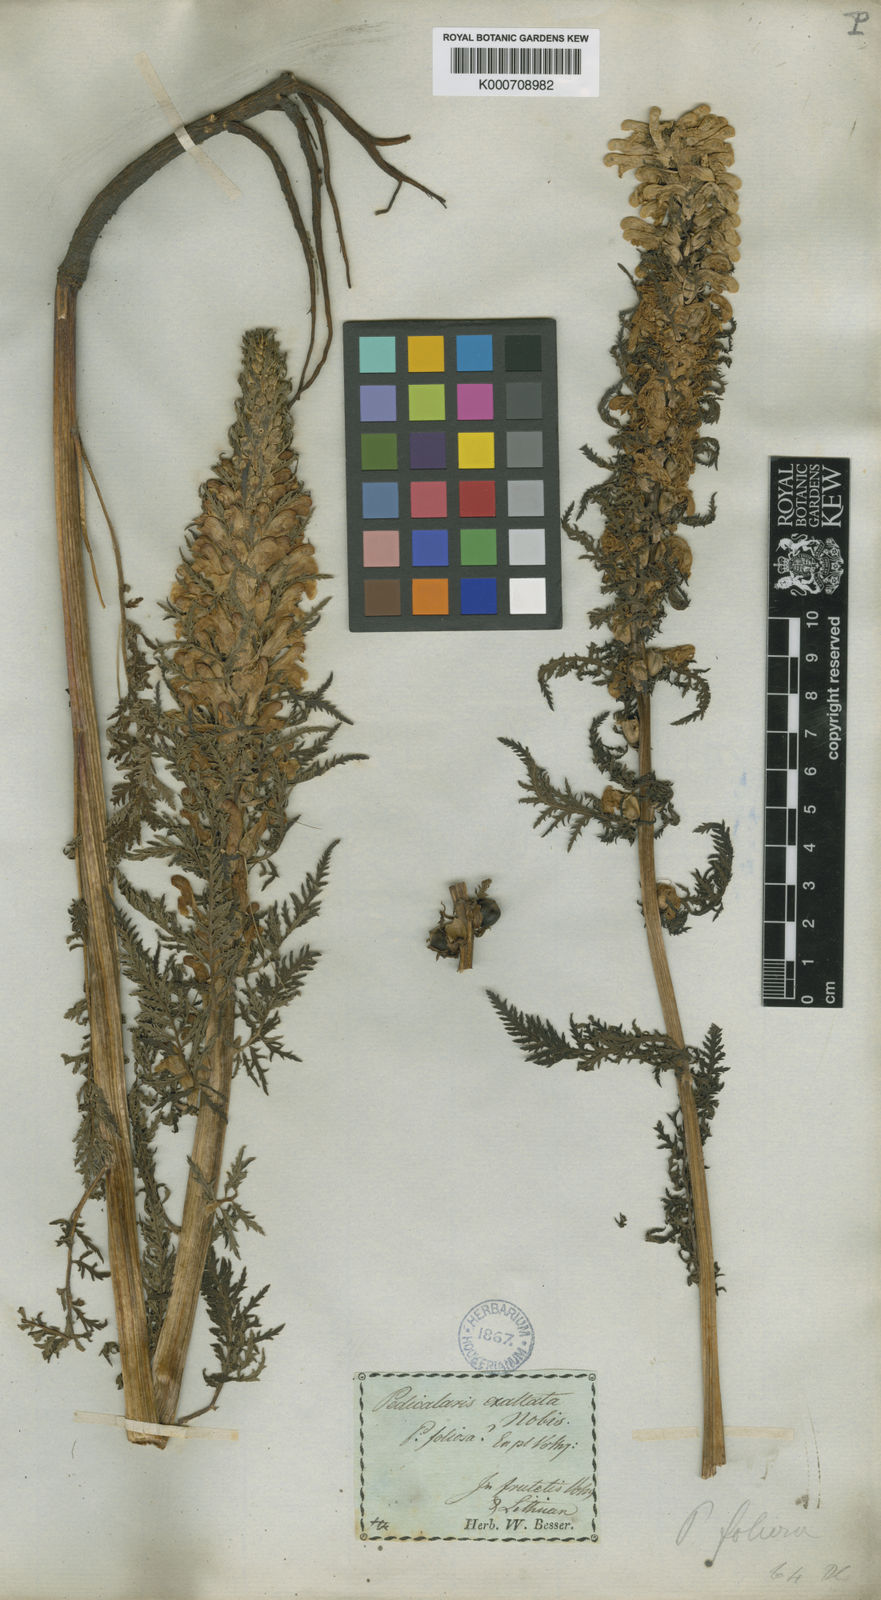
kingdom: Plantae
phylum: Tracheophyta
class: Magnoliopsida
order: Lamiales
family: Orobanchaceae
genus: Pedicularis
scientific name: Pedicularis exaltata
